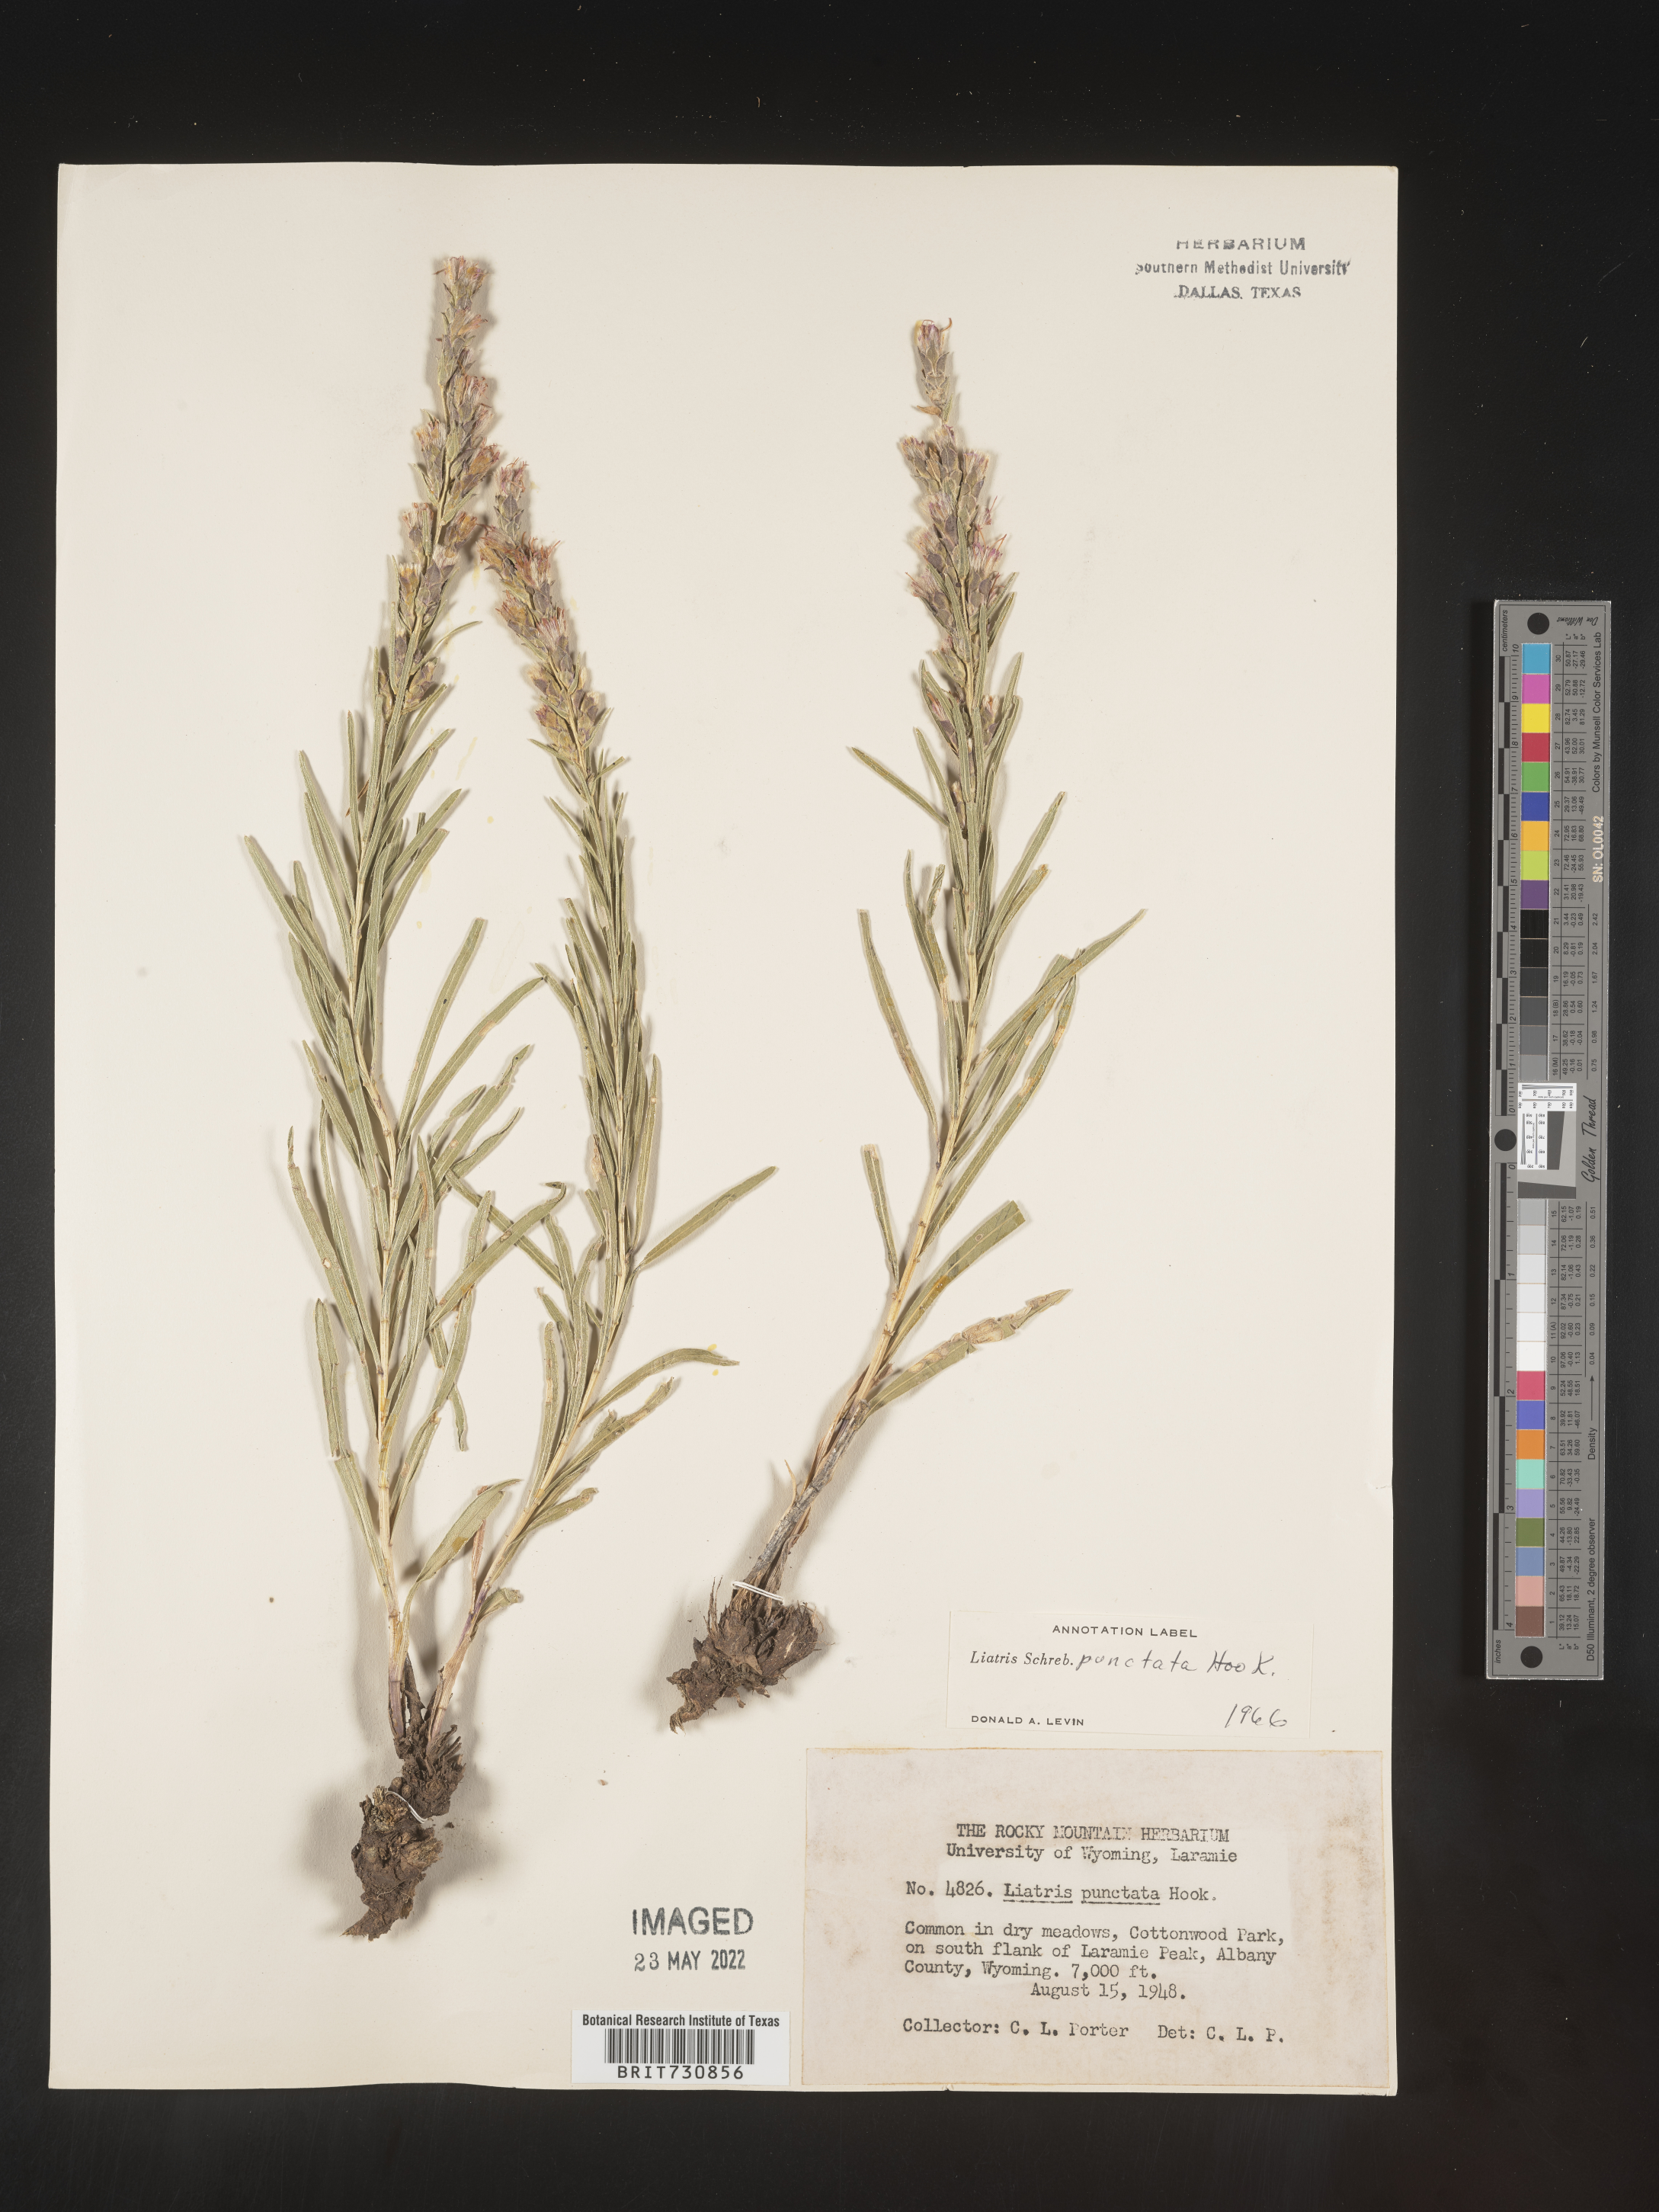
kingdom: Plantae
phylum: Tracheophyta
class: Magnoliopsida
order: Asterales
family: Asteraceae
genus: Liatris
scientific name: Liatris punctata
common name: Dotted gayfeather
